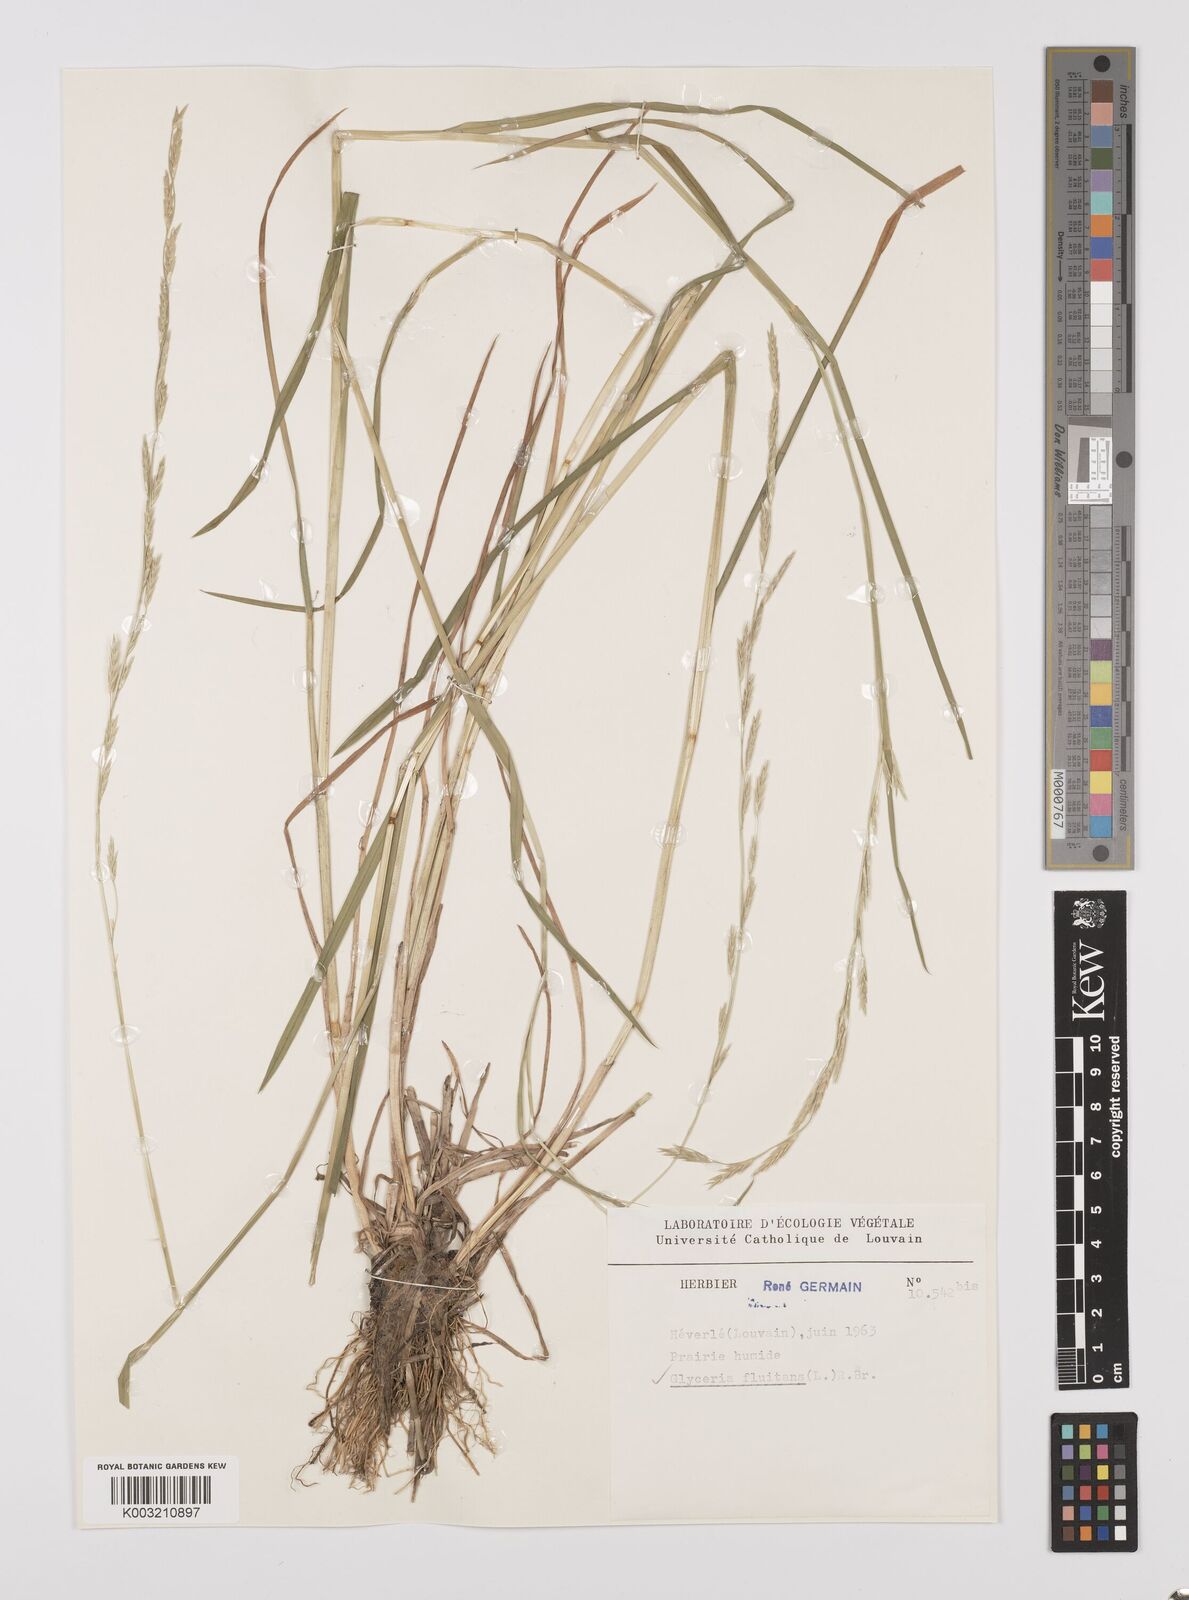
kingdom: Plantae
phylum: Tracheophyta
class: Liliopsida
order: Poales
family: Poaceae
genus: Glyceria
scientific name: Glyceria fluitans
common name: Floating sweet-grass
